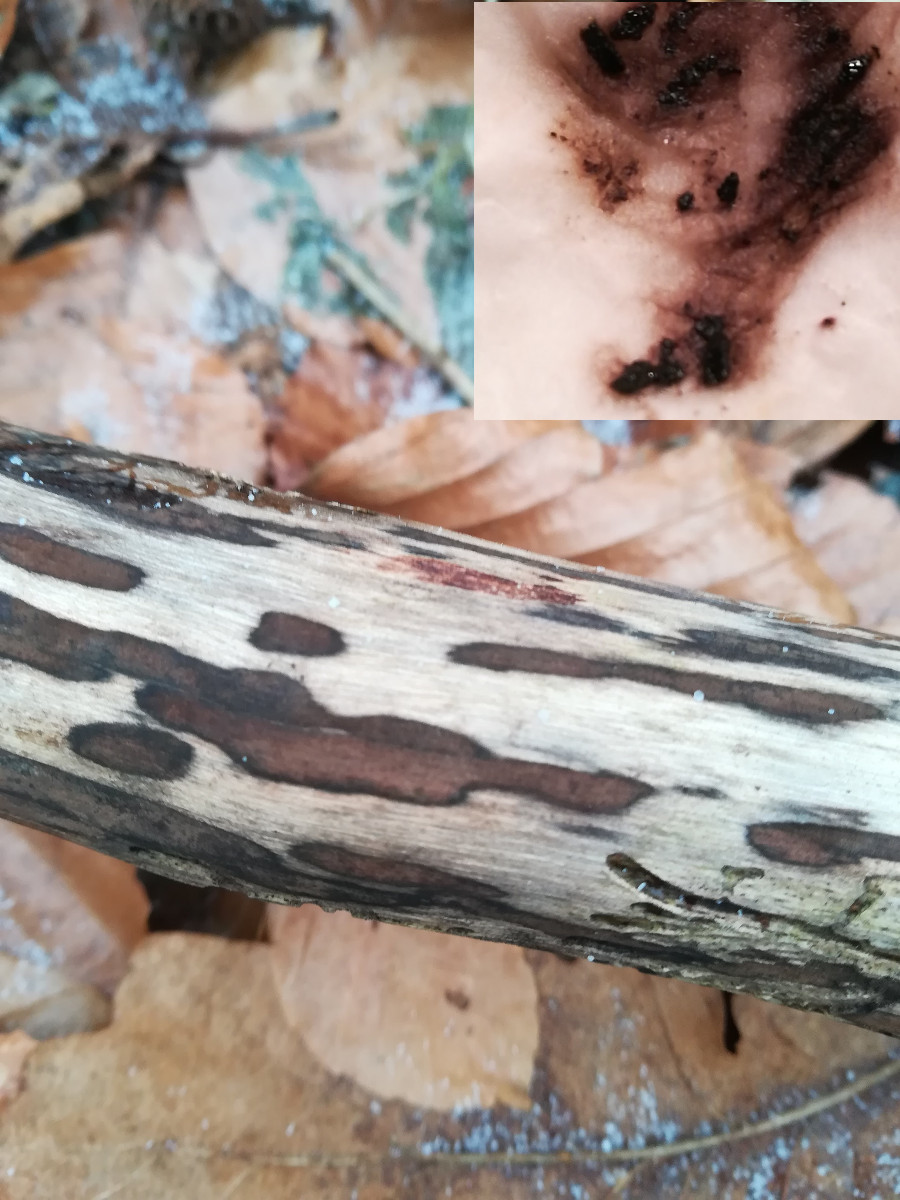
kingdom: Fungi
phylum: Ascomycota
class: Sordariomycetes
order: Xylariales
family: Hypoxylaceae
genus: Hypoxylon
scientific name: Hypoxylon macrocarpum
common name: skorpe-kulbær
